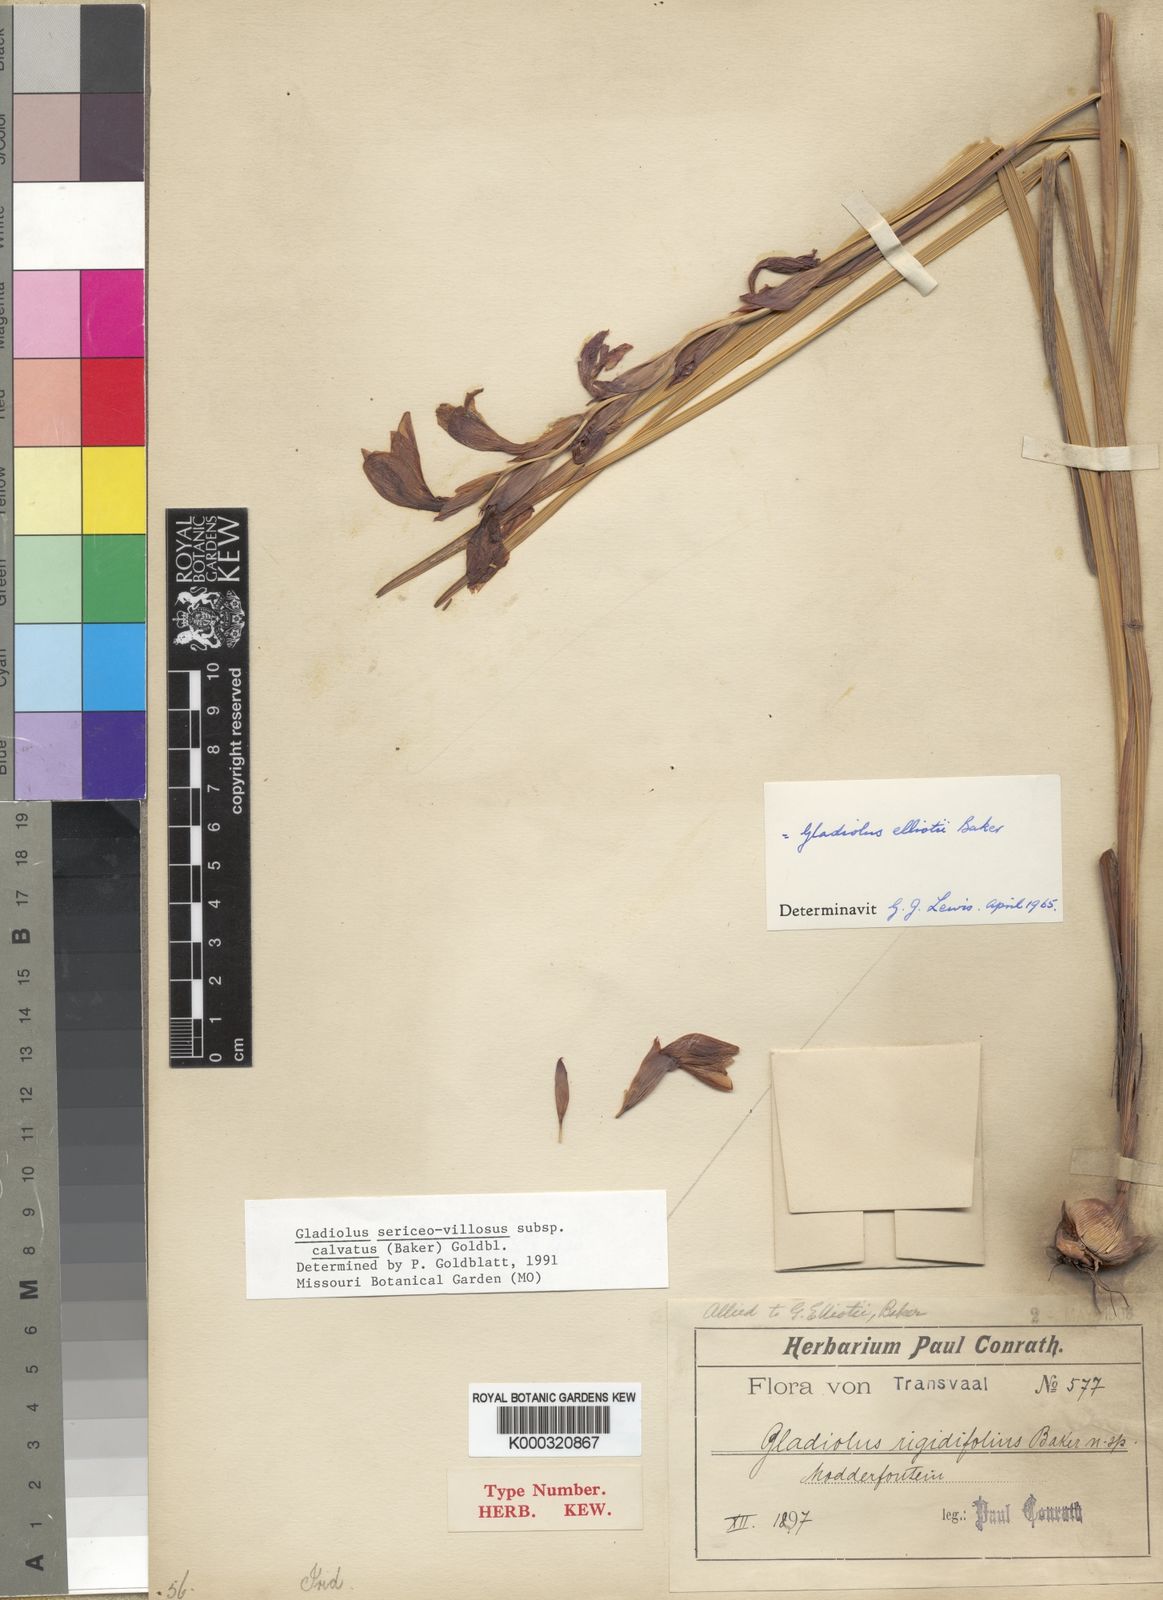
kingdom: Plantae
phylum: Tracheophyta
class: Liliopsida
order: Asparagales
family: Iridaceae
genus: Gladiolus
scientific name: Gladiolus sericeovillosus
